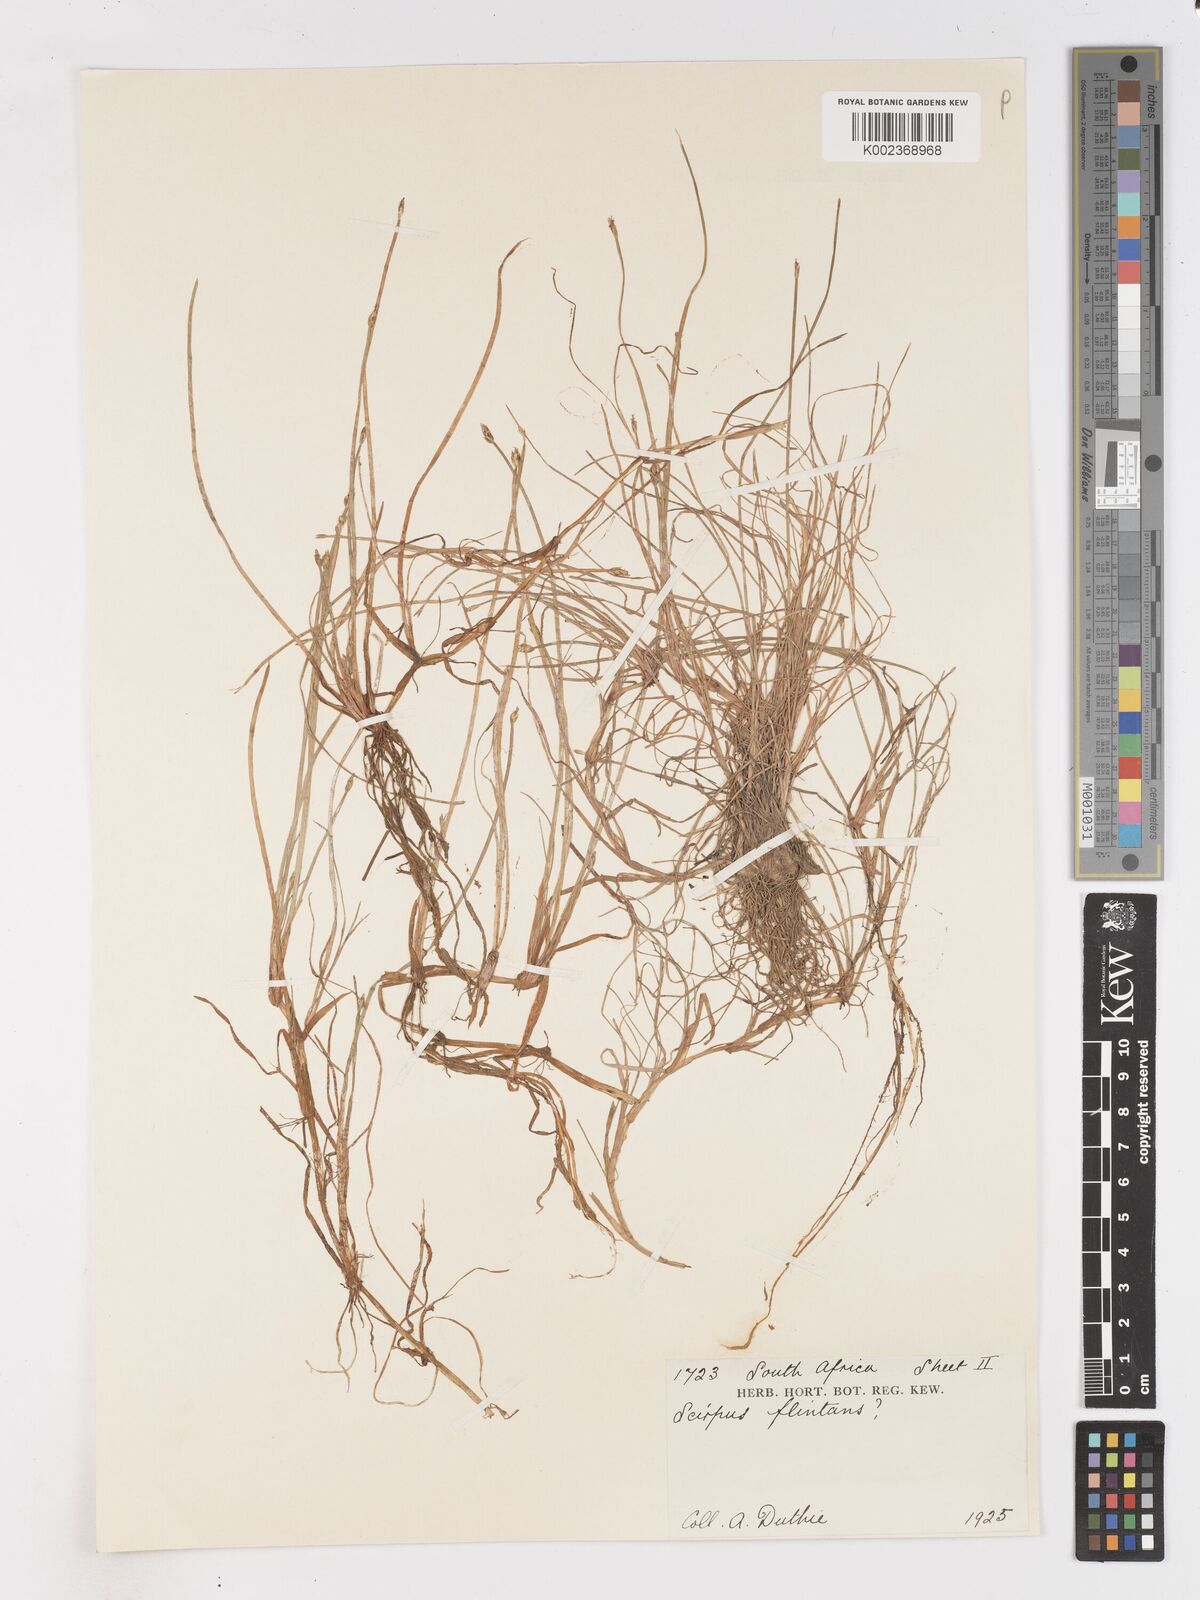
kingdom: Plantae
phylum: Tracheophyta
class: Liliopsida
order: Poales
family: Cyperaceae
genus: Isolepis
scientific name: Isolepis striata
